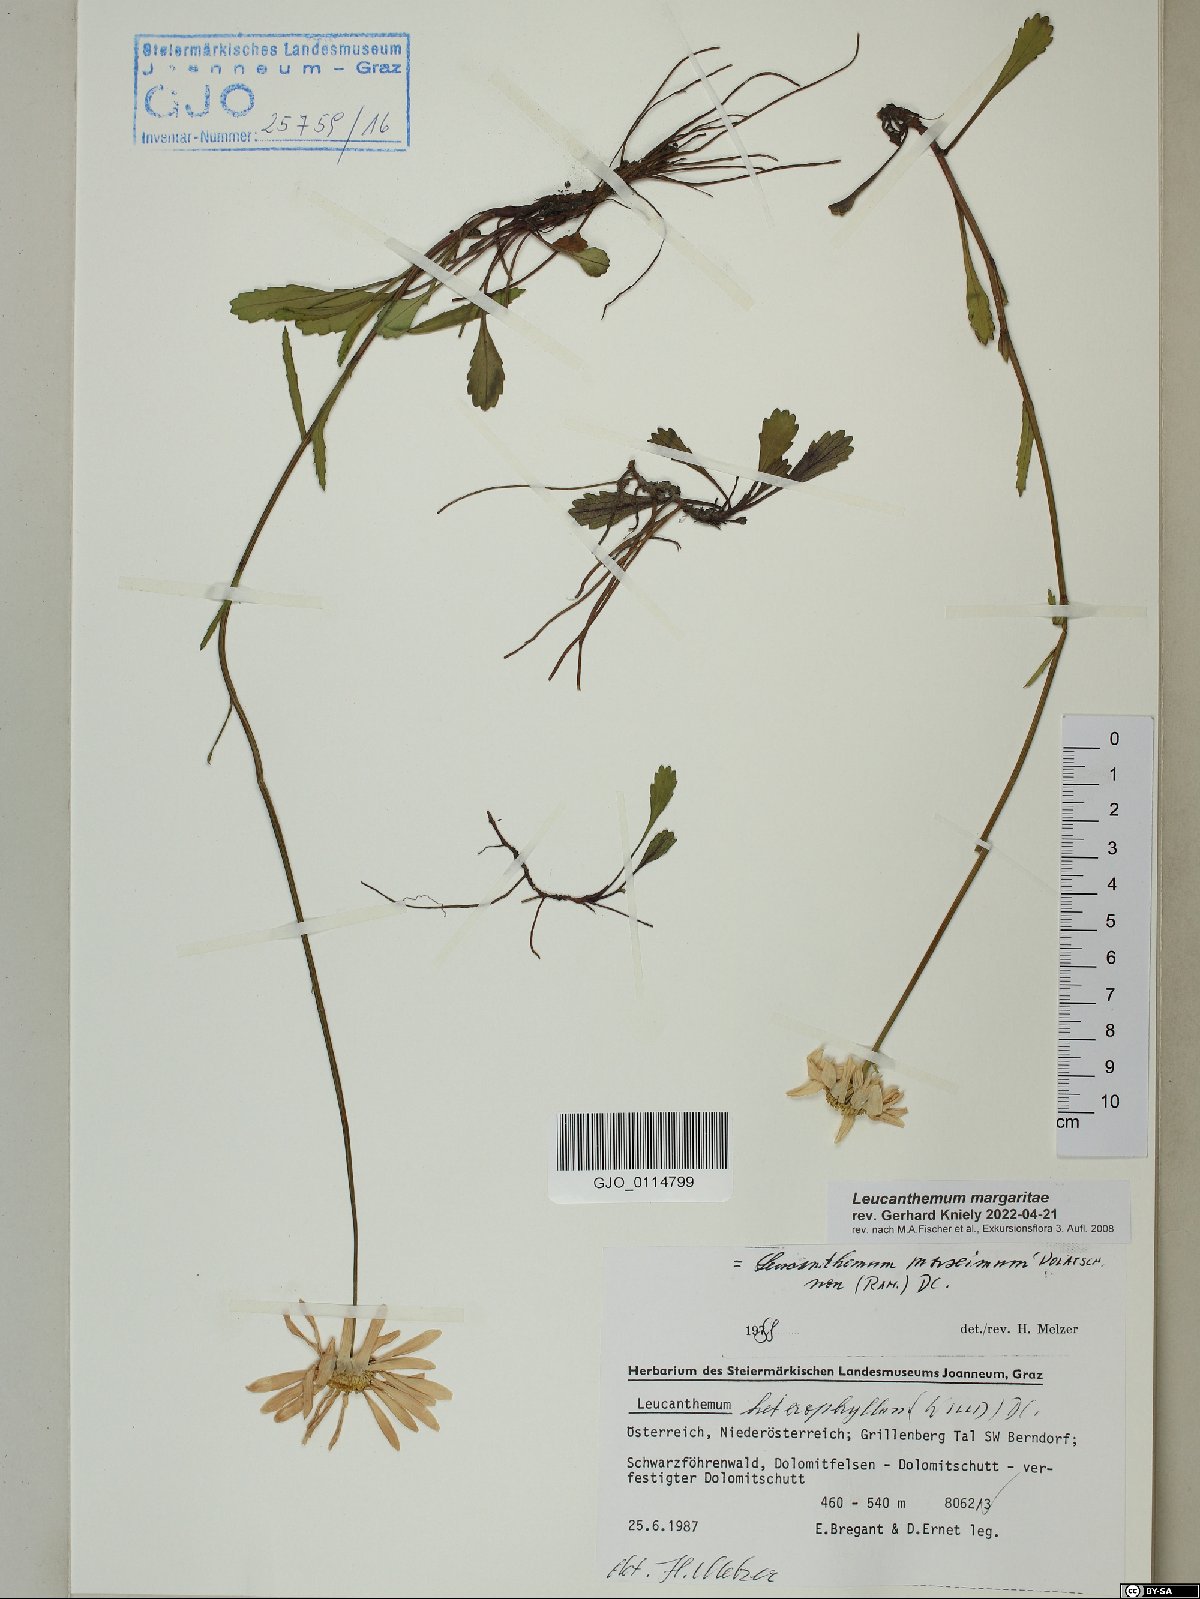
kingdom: Plantae
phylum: Tracheophyta
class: Magnoliopsida
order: Asterales
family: Asteraceae
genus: Leucanthemum
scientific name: Leucanthemum adustum
